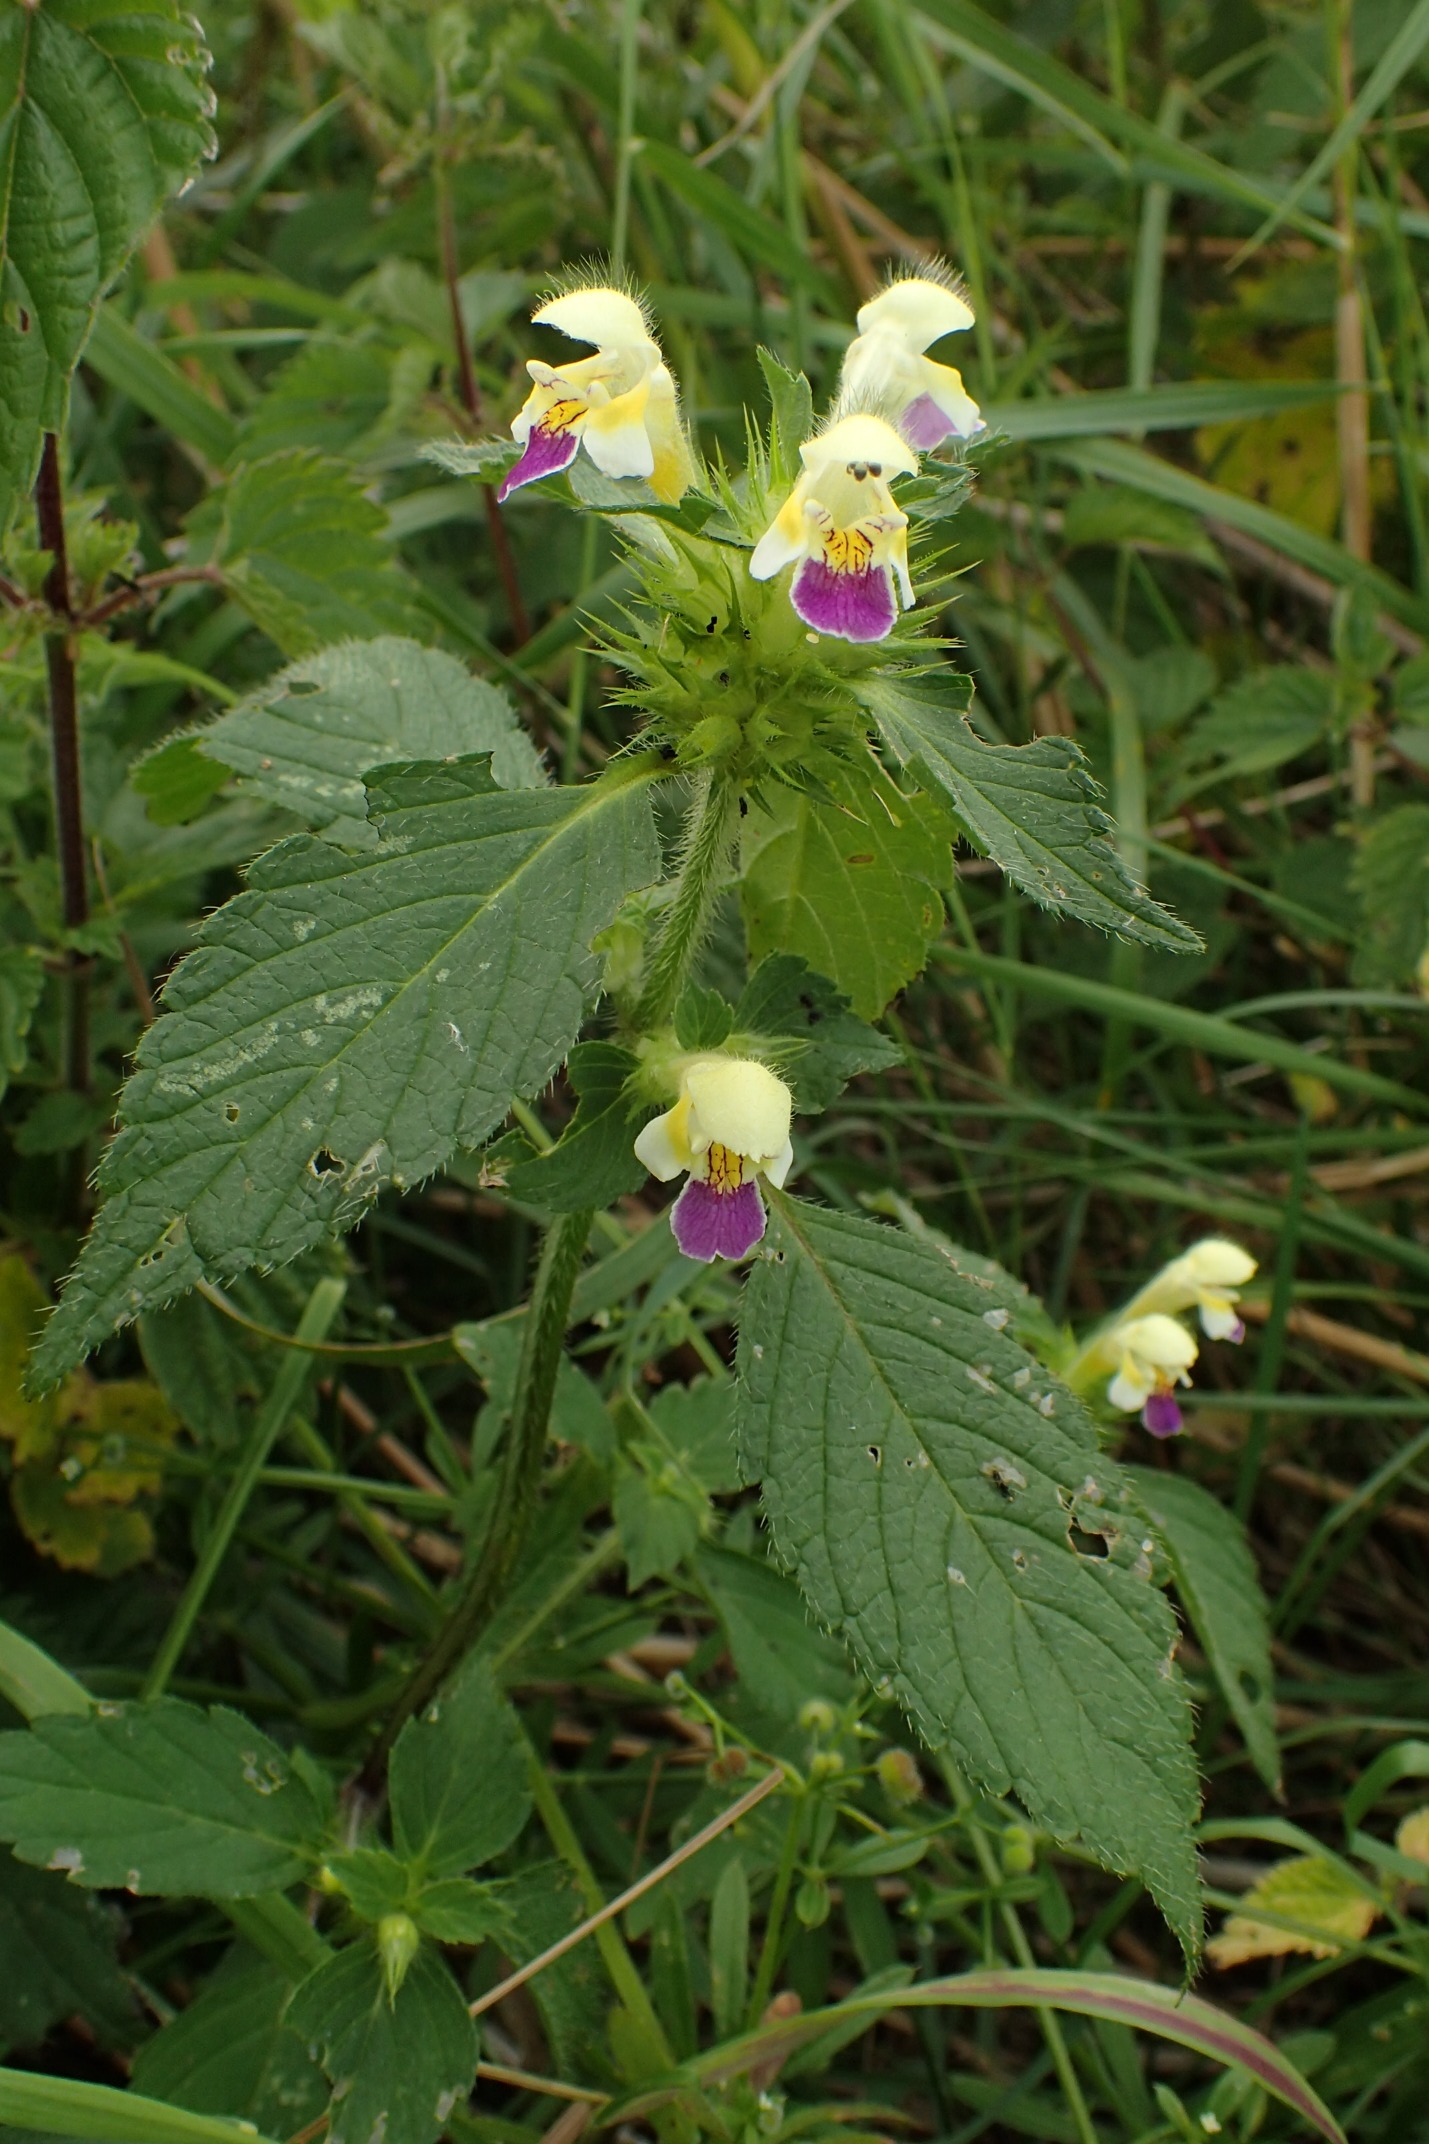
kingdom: Plantae
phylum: Tracheophyta
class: Magnoliopsida
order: Lamiales
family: Lamiaceae
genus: Galeopsis
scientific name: Galeopsis speciosa
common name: Hamp-hanekro
